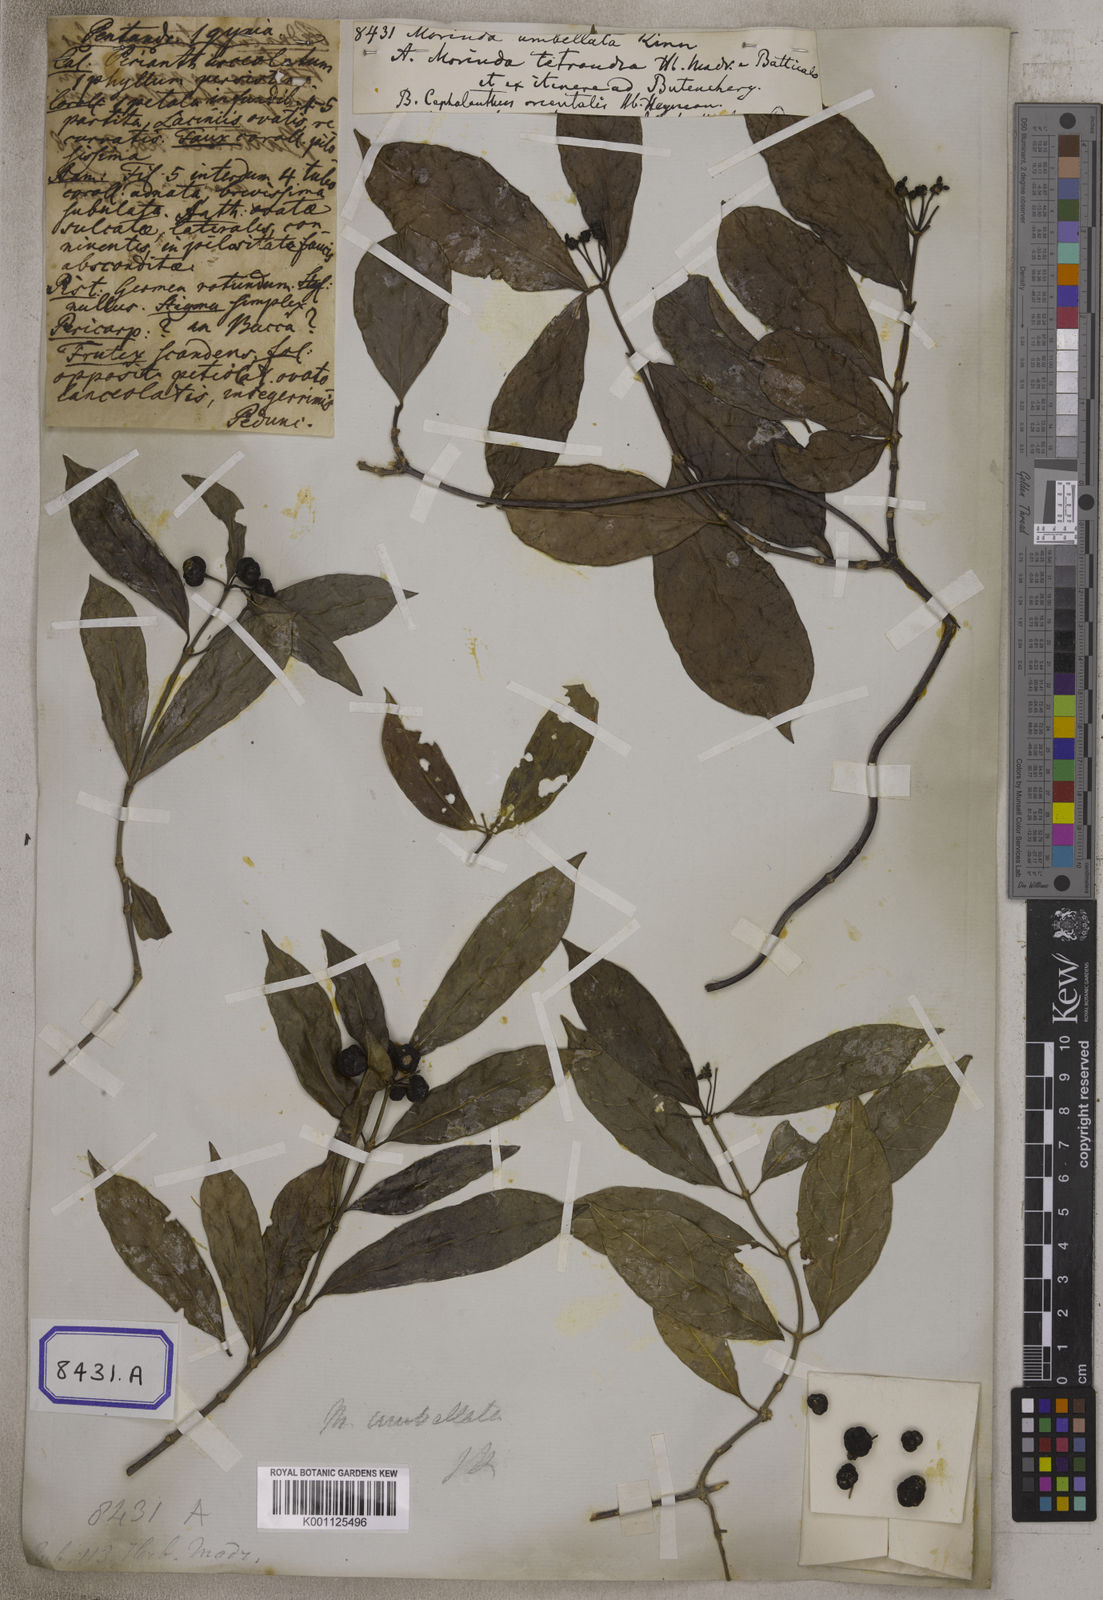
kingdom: Plantae
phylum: Tracheophyta
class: Magnoliopsida
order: Gentianales
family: Rubiaceae
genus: Gynochthodes
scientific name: Gynochthodes umbellata
